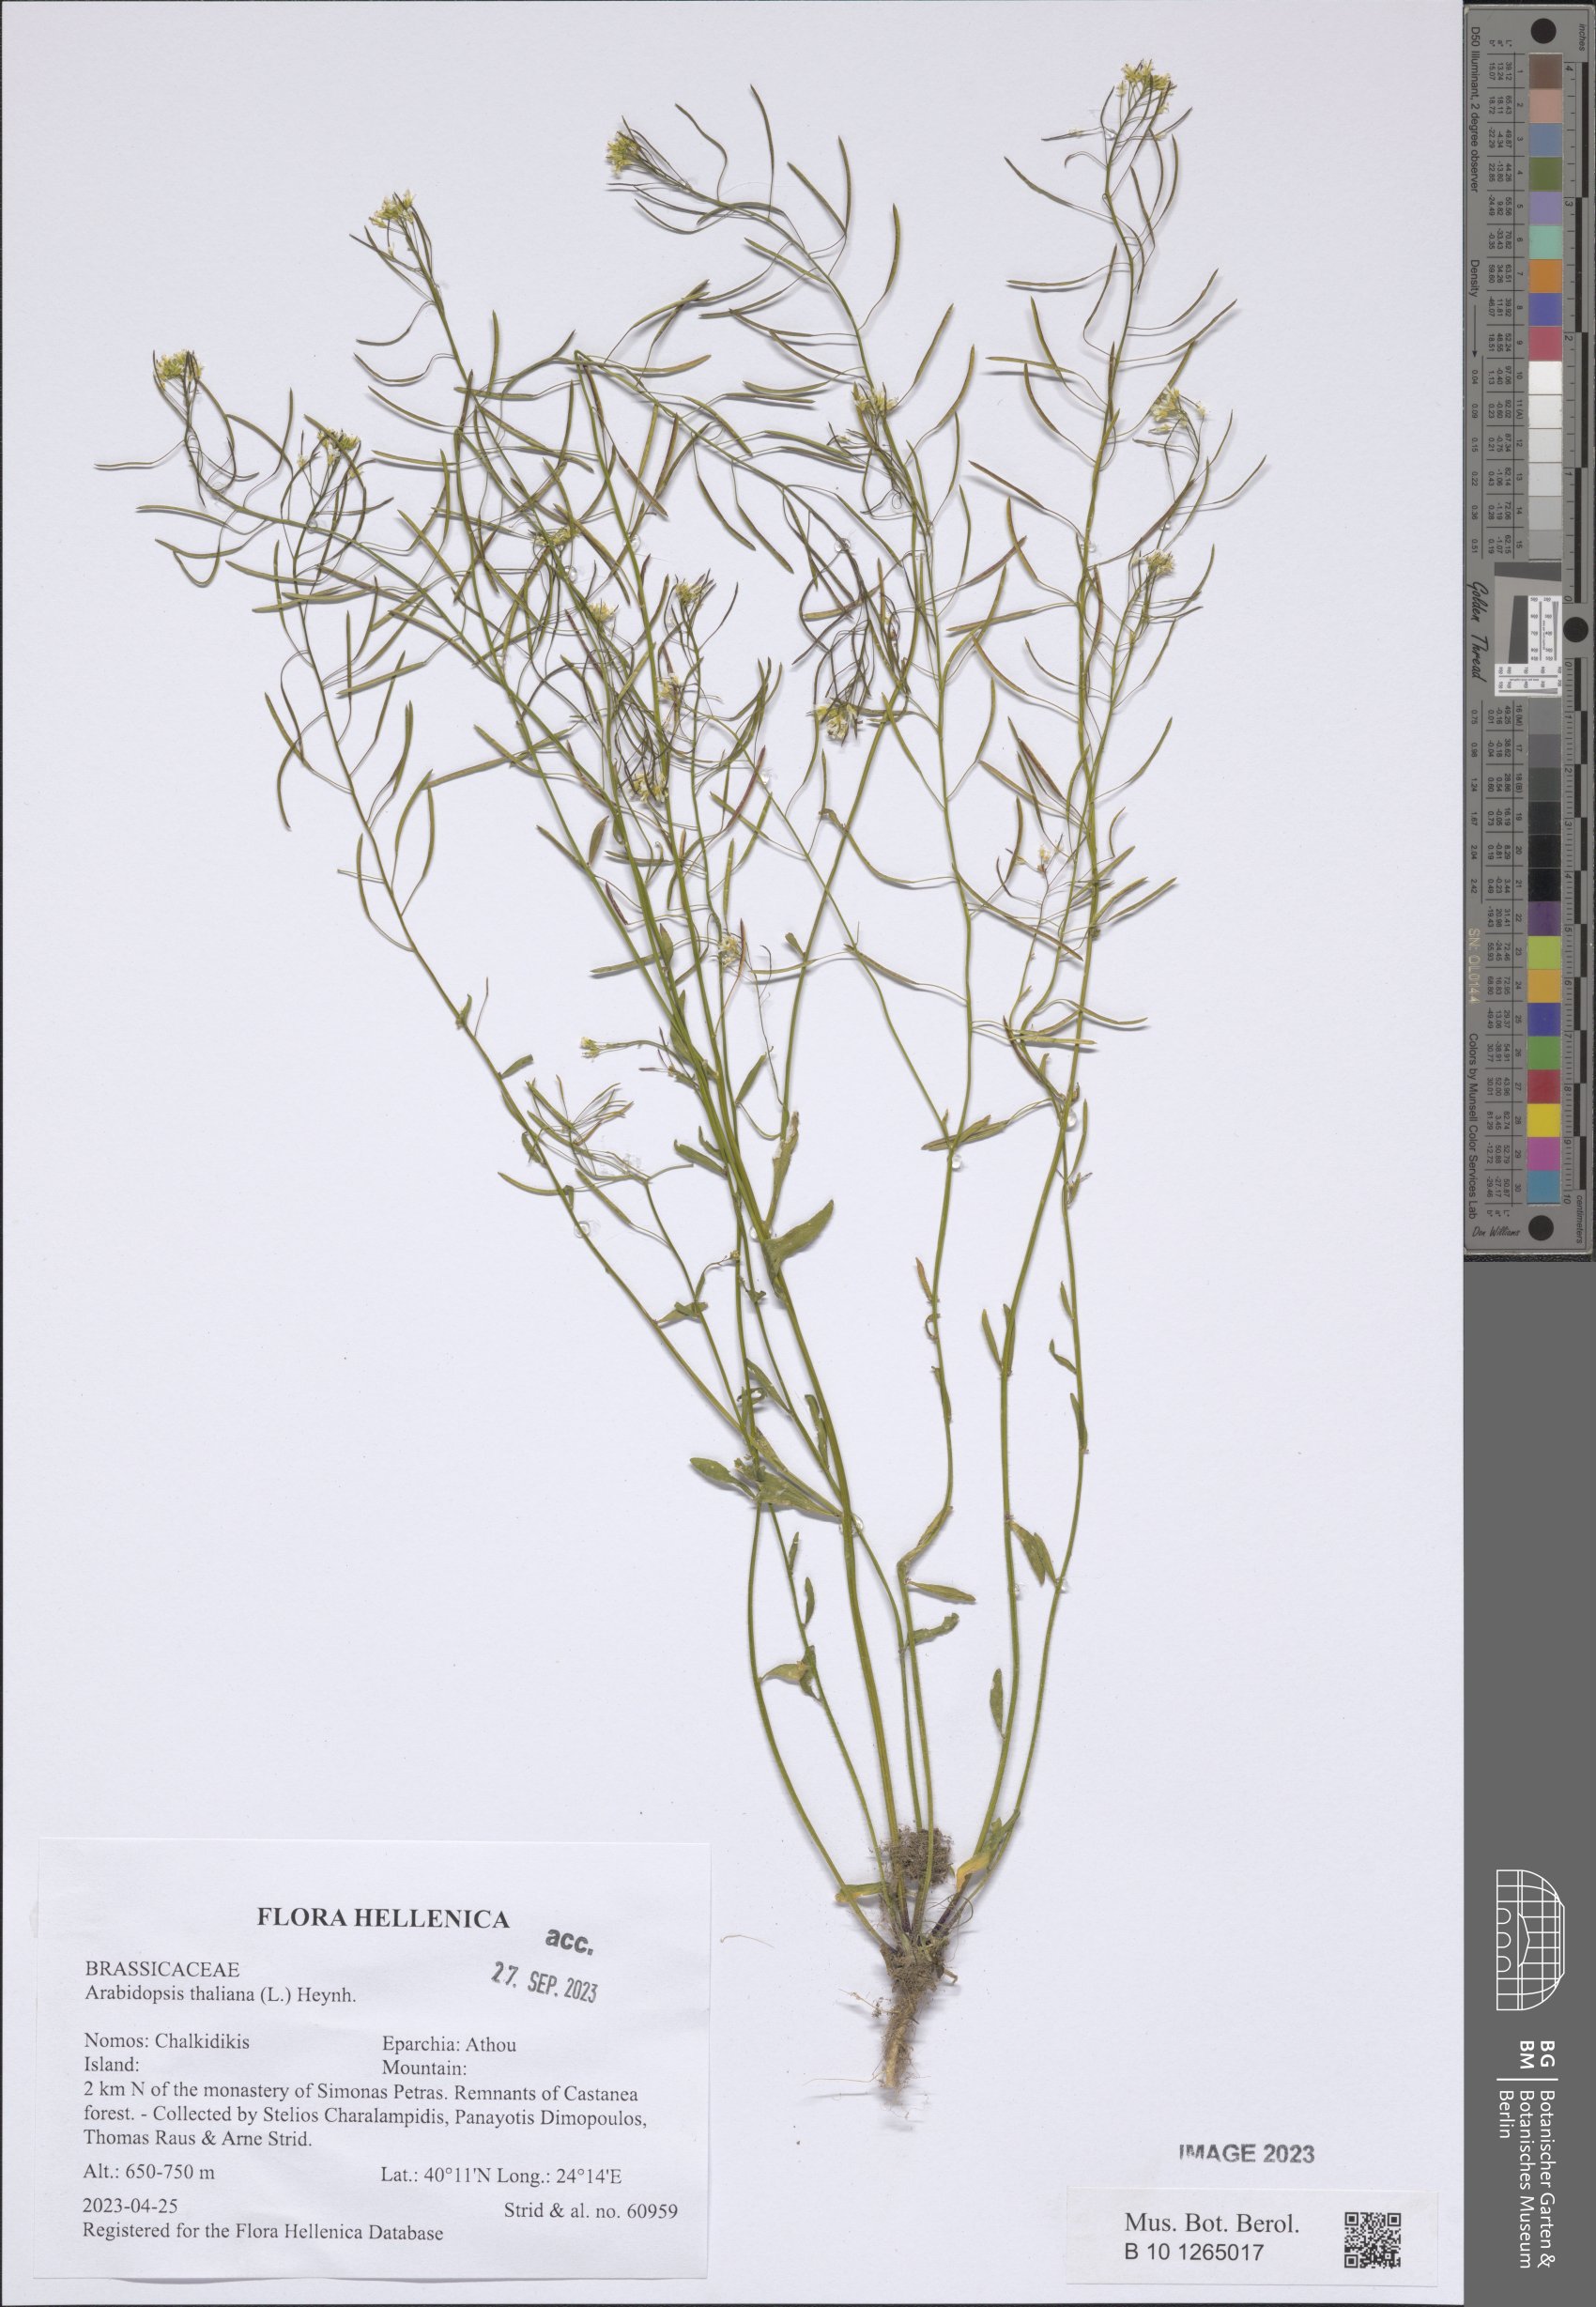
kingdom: Plantae
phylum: Tracheophyta
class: Magnoliopsida
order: Brassicales
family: Brassicaceae
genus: Arabidopsis
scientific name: Arabidopsis thaliana
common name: Thale cress
